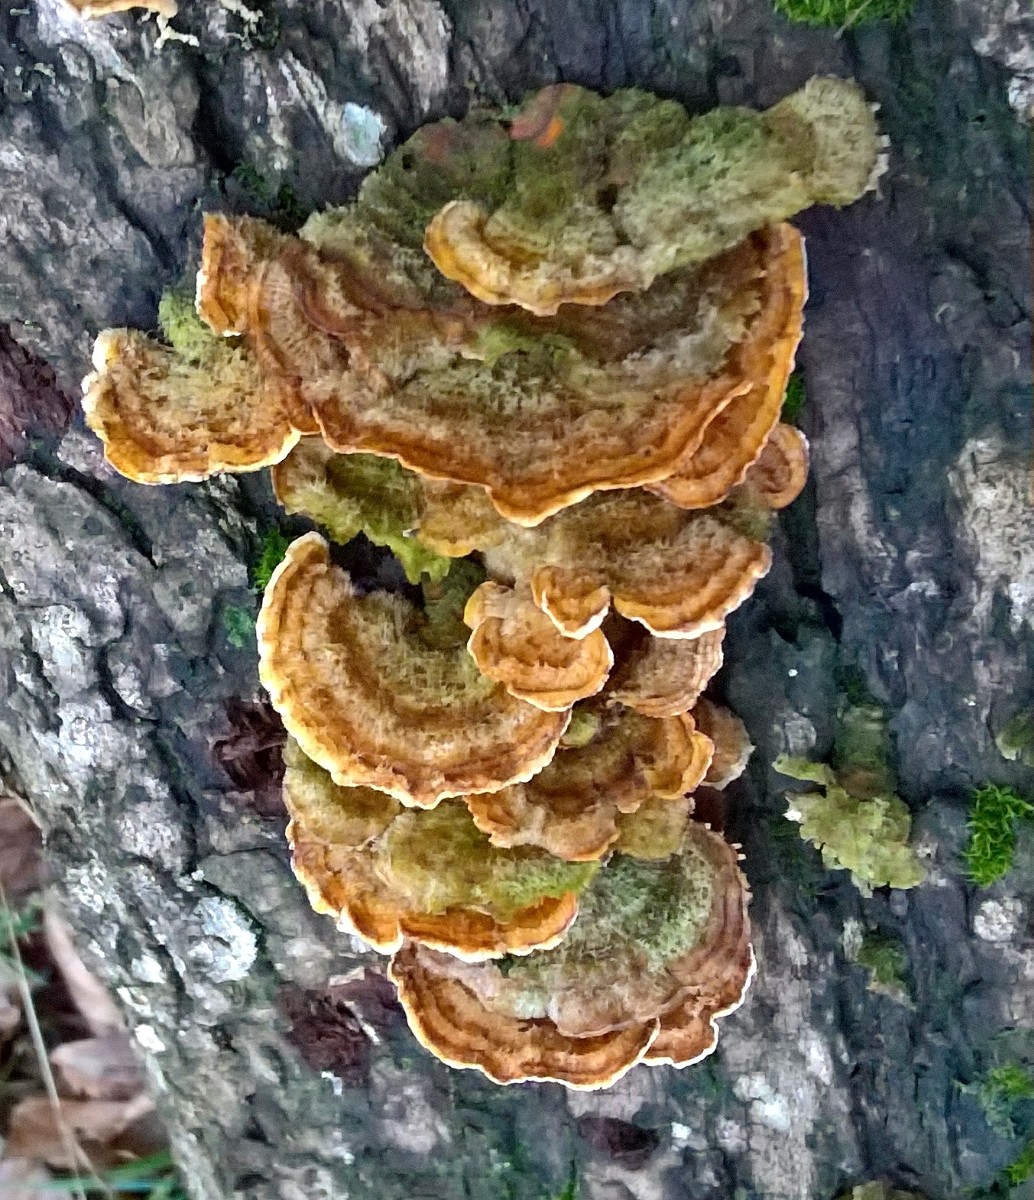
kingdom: Fungi
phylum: Basidiomycota
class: Agaricomycetes
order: Russulales
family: Stereaceae
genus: Stereum
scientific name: Stereum hirsutum
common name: håret lædersvamp
